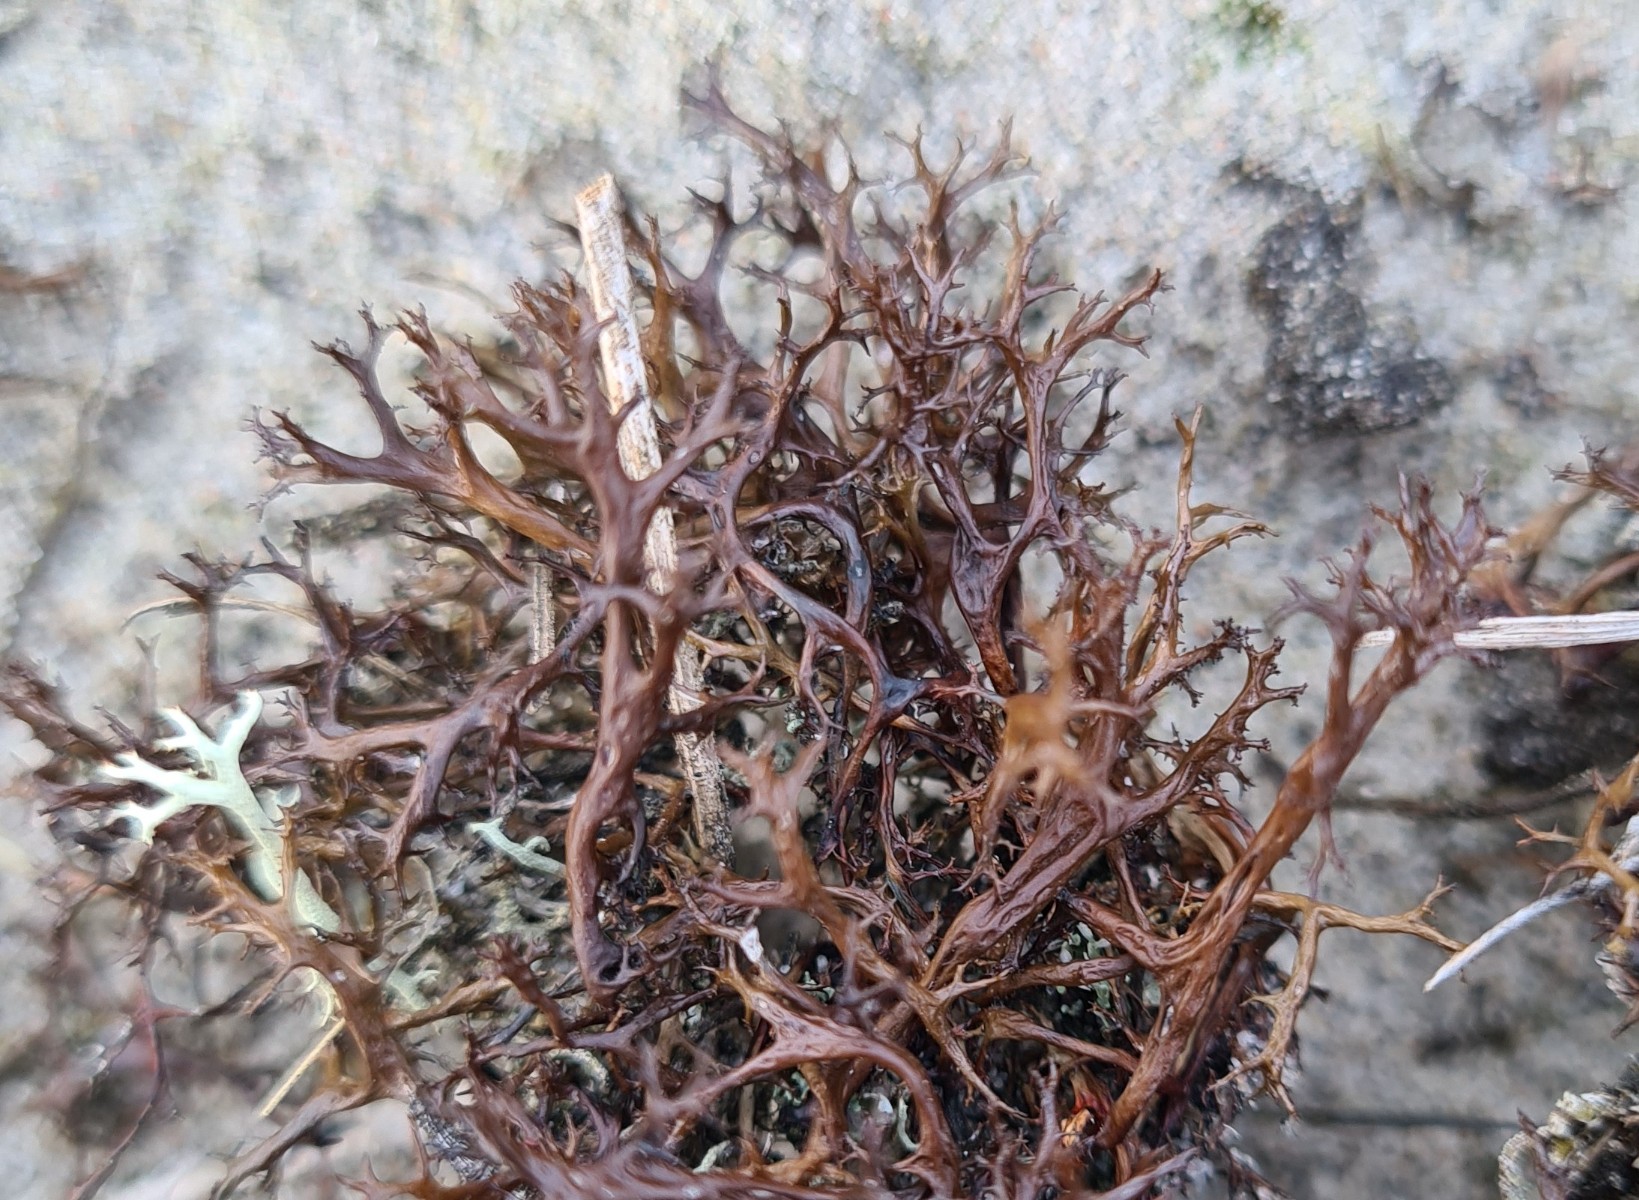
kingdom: Fungi
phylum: Ascomycota
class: Lecanoromycetes
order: Lecanorales
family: Parmeliaceae
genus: Cetraria
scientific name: Cetraria aculeata
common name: grubet tjørnelav
